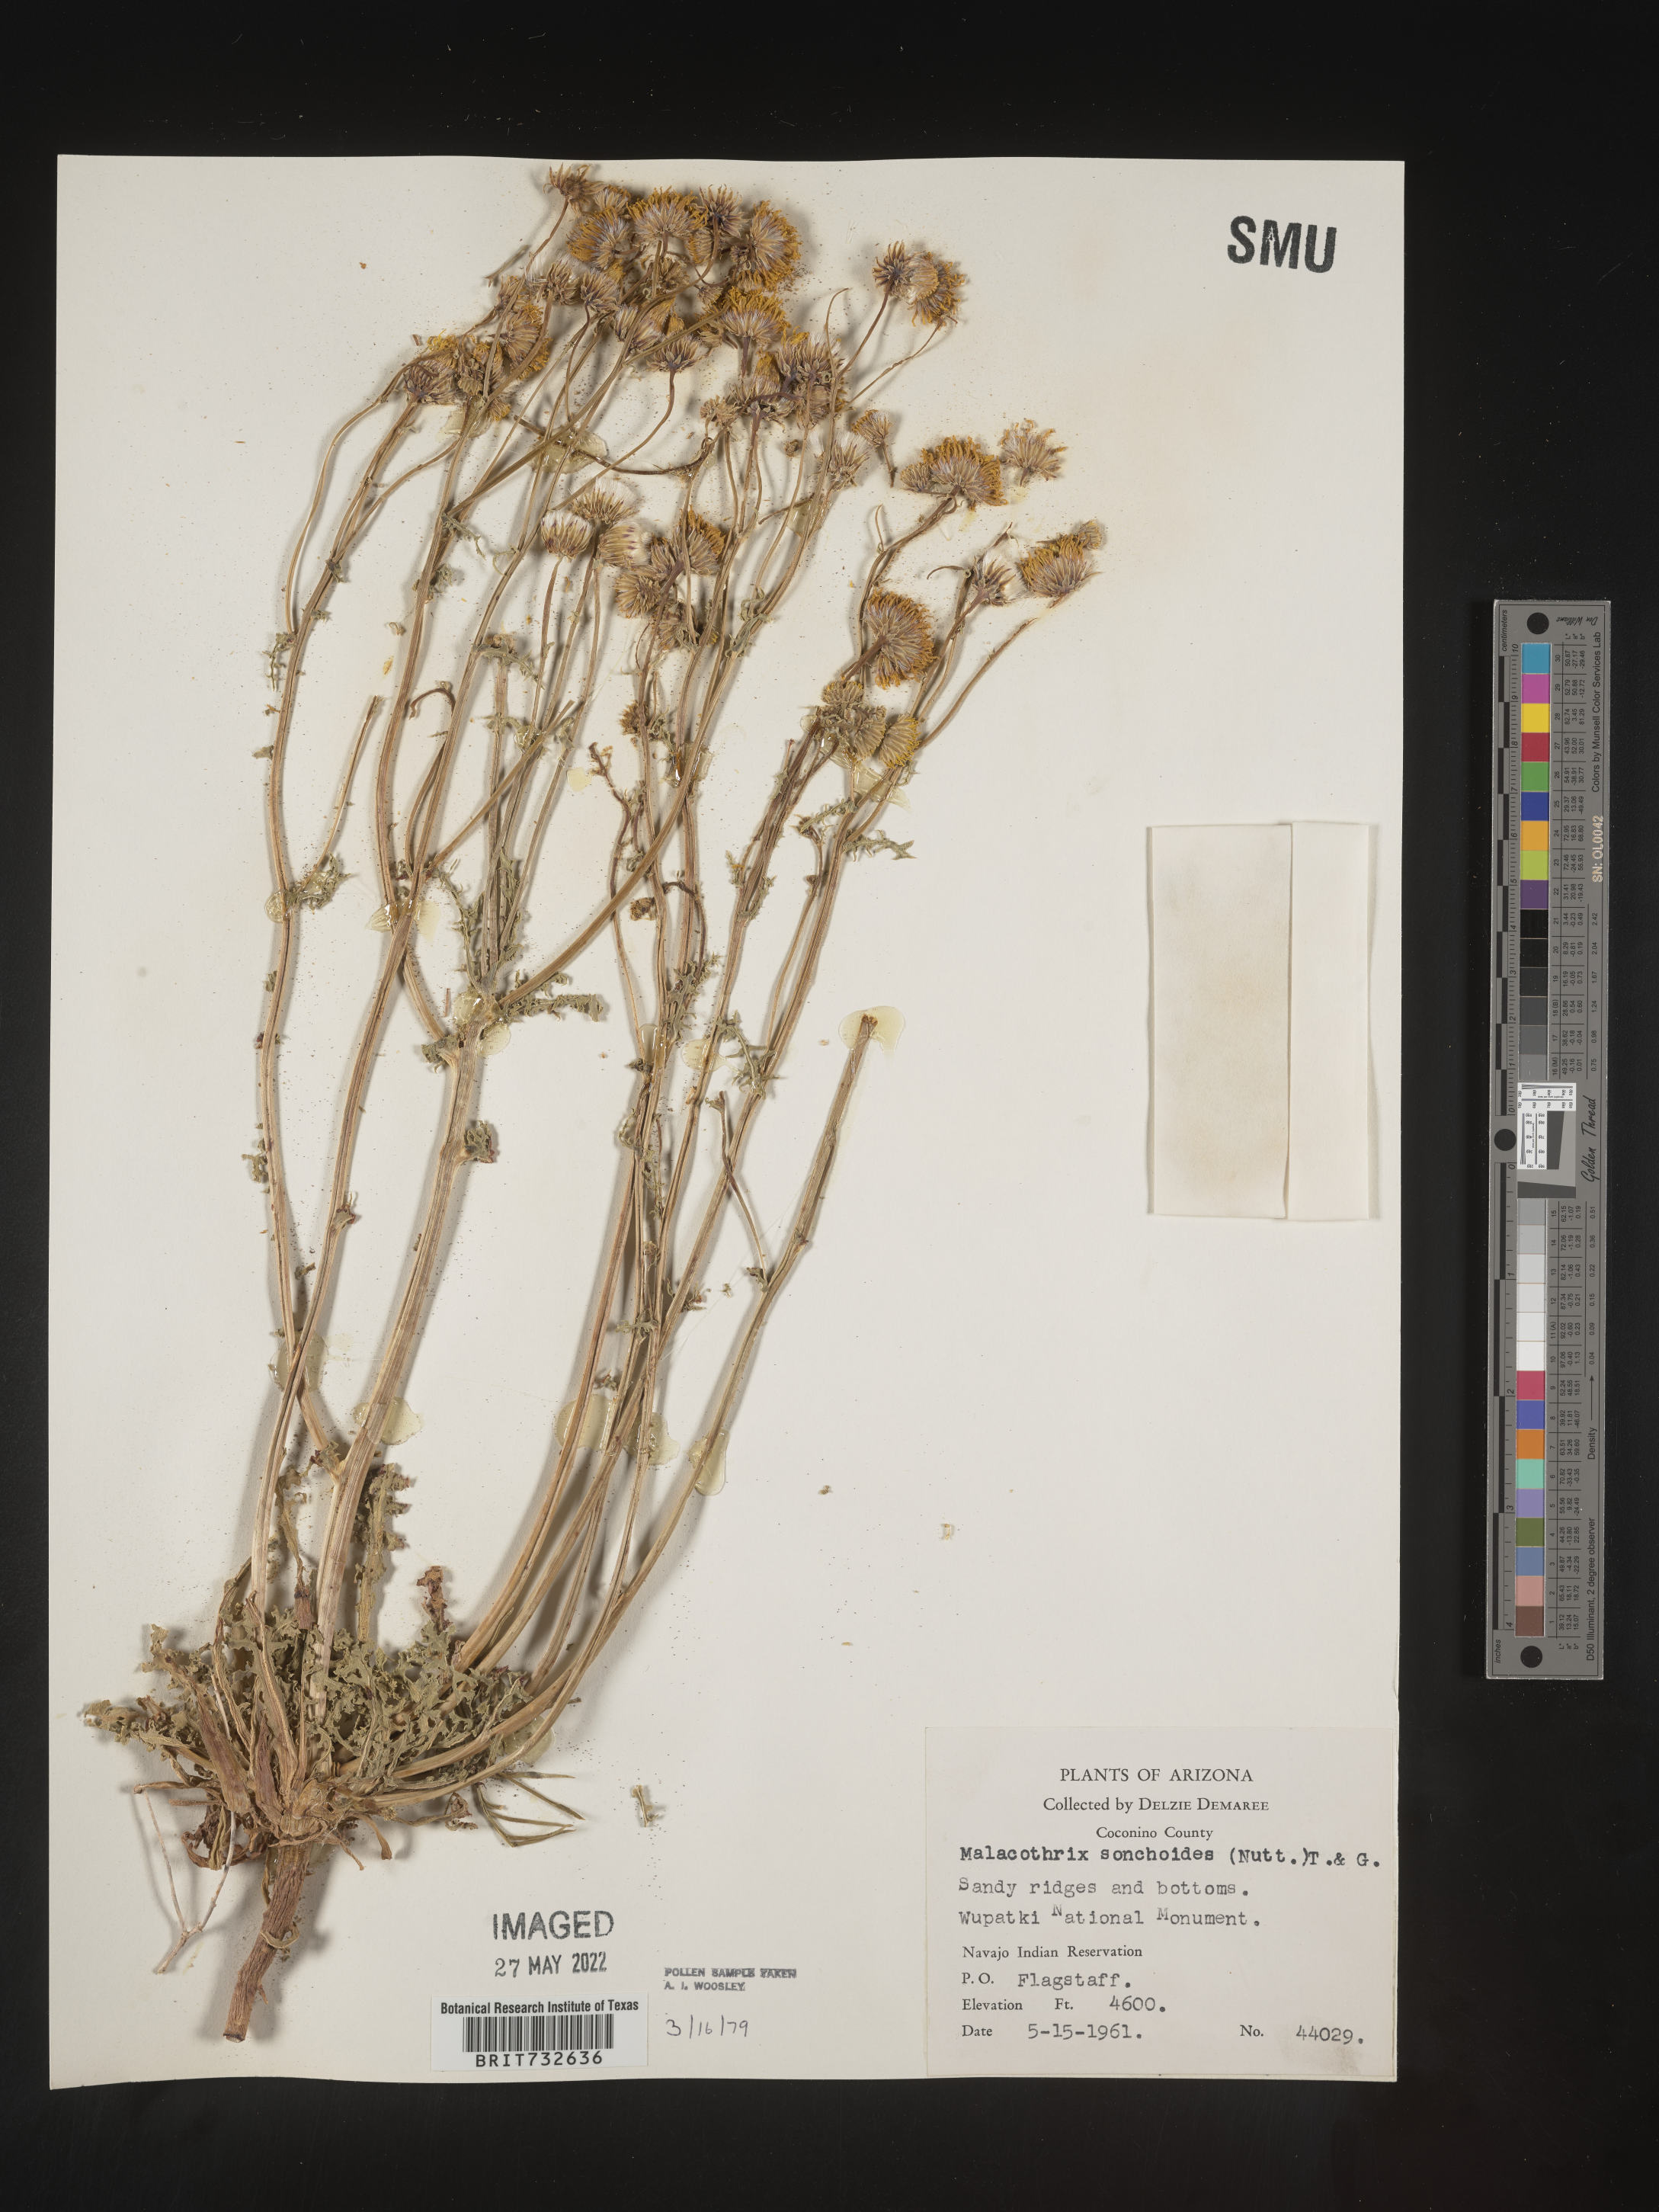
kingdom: Plantae
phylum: Tracheophyta
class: Magnoliopsida
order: Asterales
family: Asteraceae
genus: Malacothrix
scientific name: Malacothrix sonchoides
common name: Sow-thistle desert-dandelion
